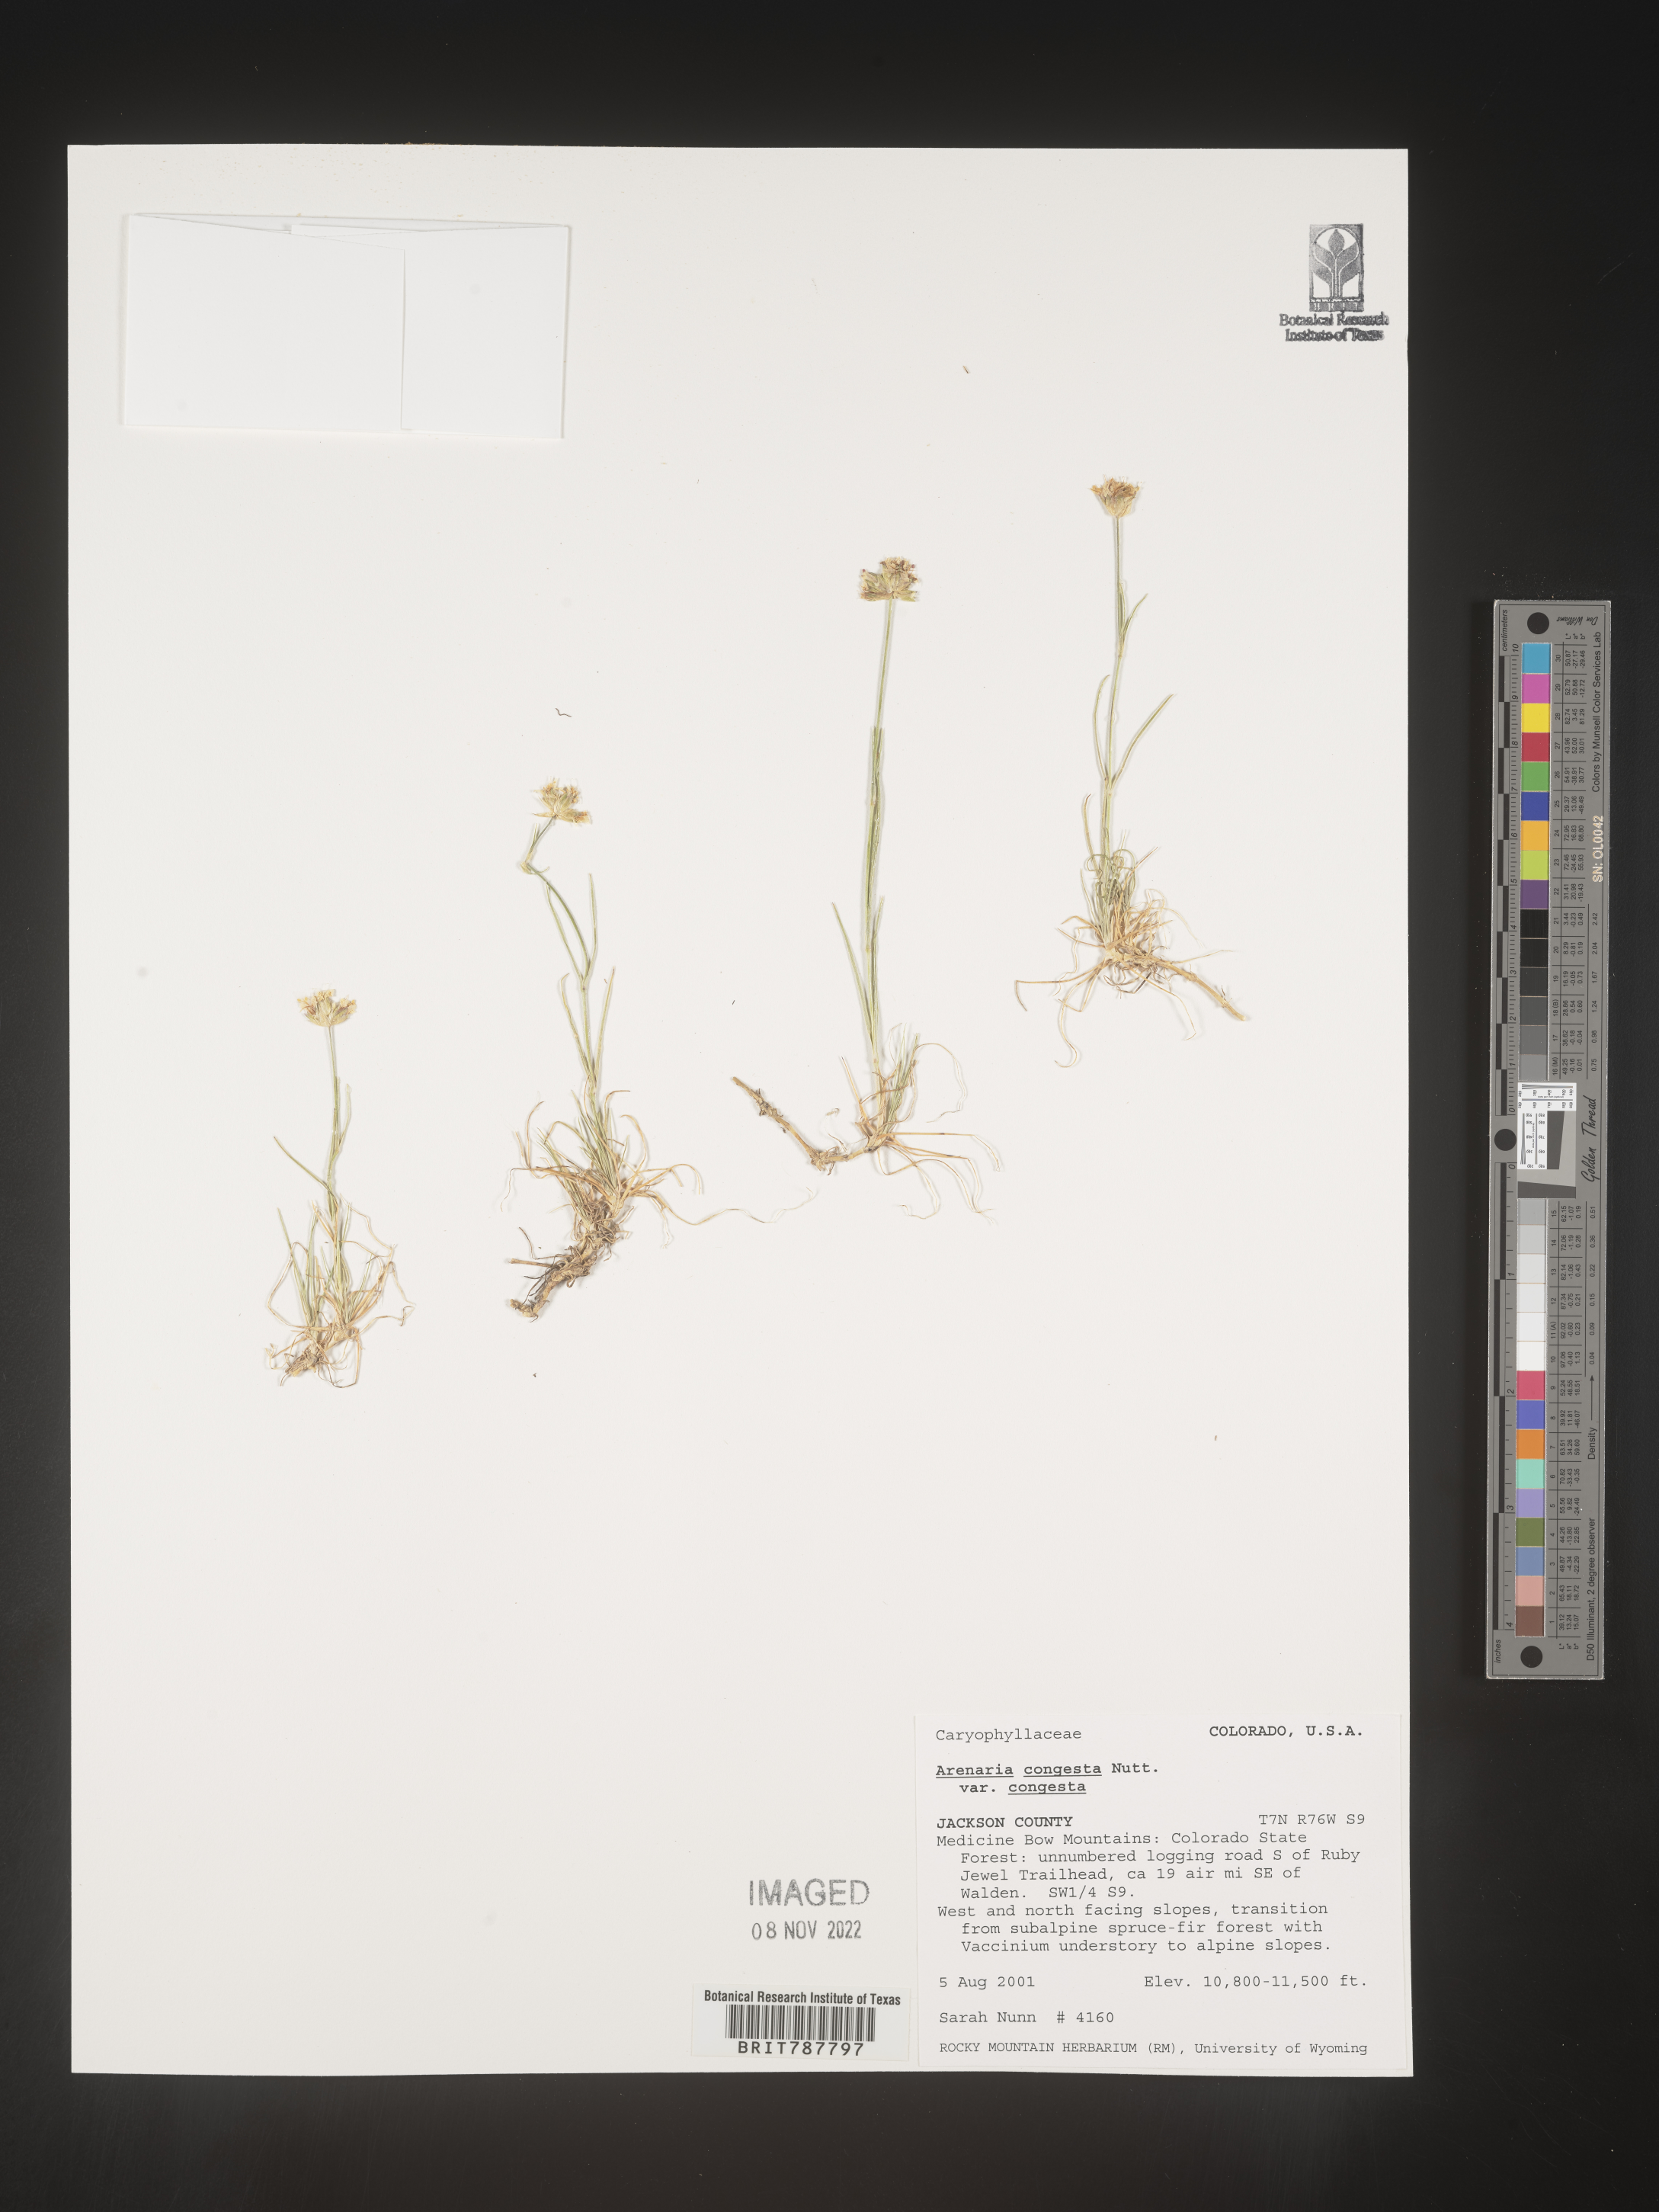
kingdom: Plantae
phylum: Tracheophyta
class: Magnoliopsida
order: Caryophyllales
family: Caryophyllaceae
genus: Eremogone
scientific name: Eremogone congesta
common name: Ballhead sandwort
